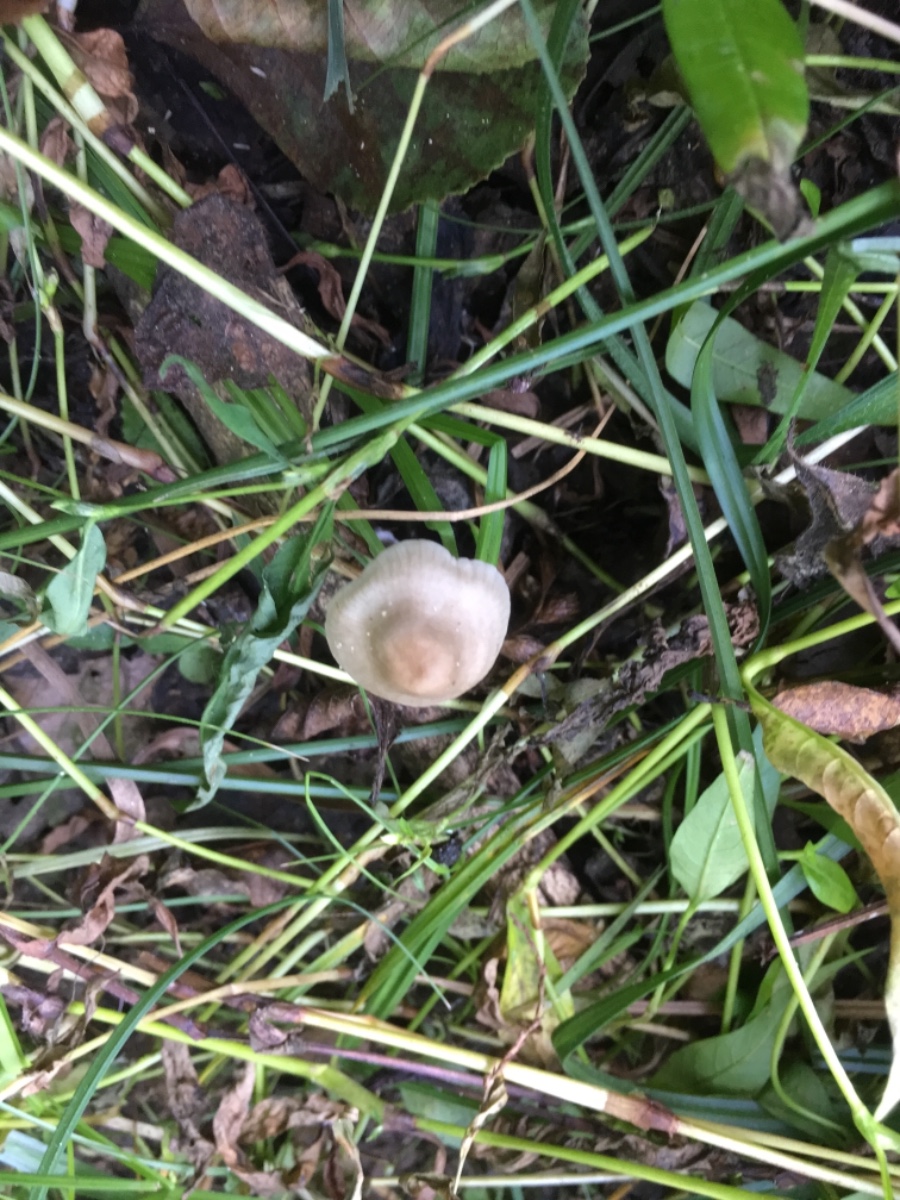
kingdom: Fungi
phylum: Basidiomycota
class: Agaricomycetes
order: Agaricales
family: Mycenaceae
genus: Mycena
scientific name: Mycena galericulata
